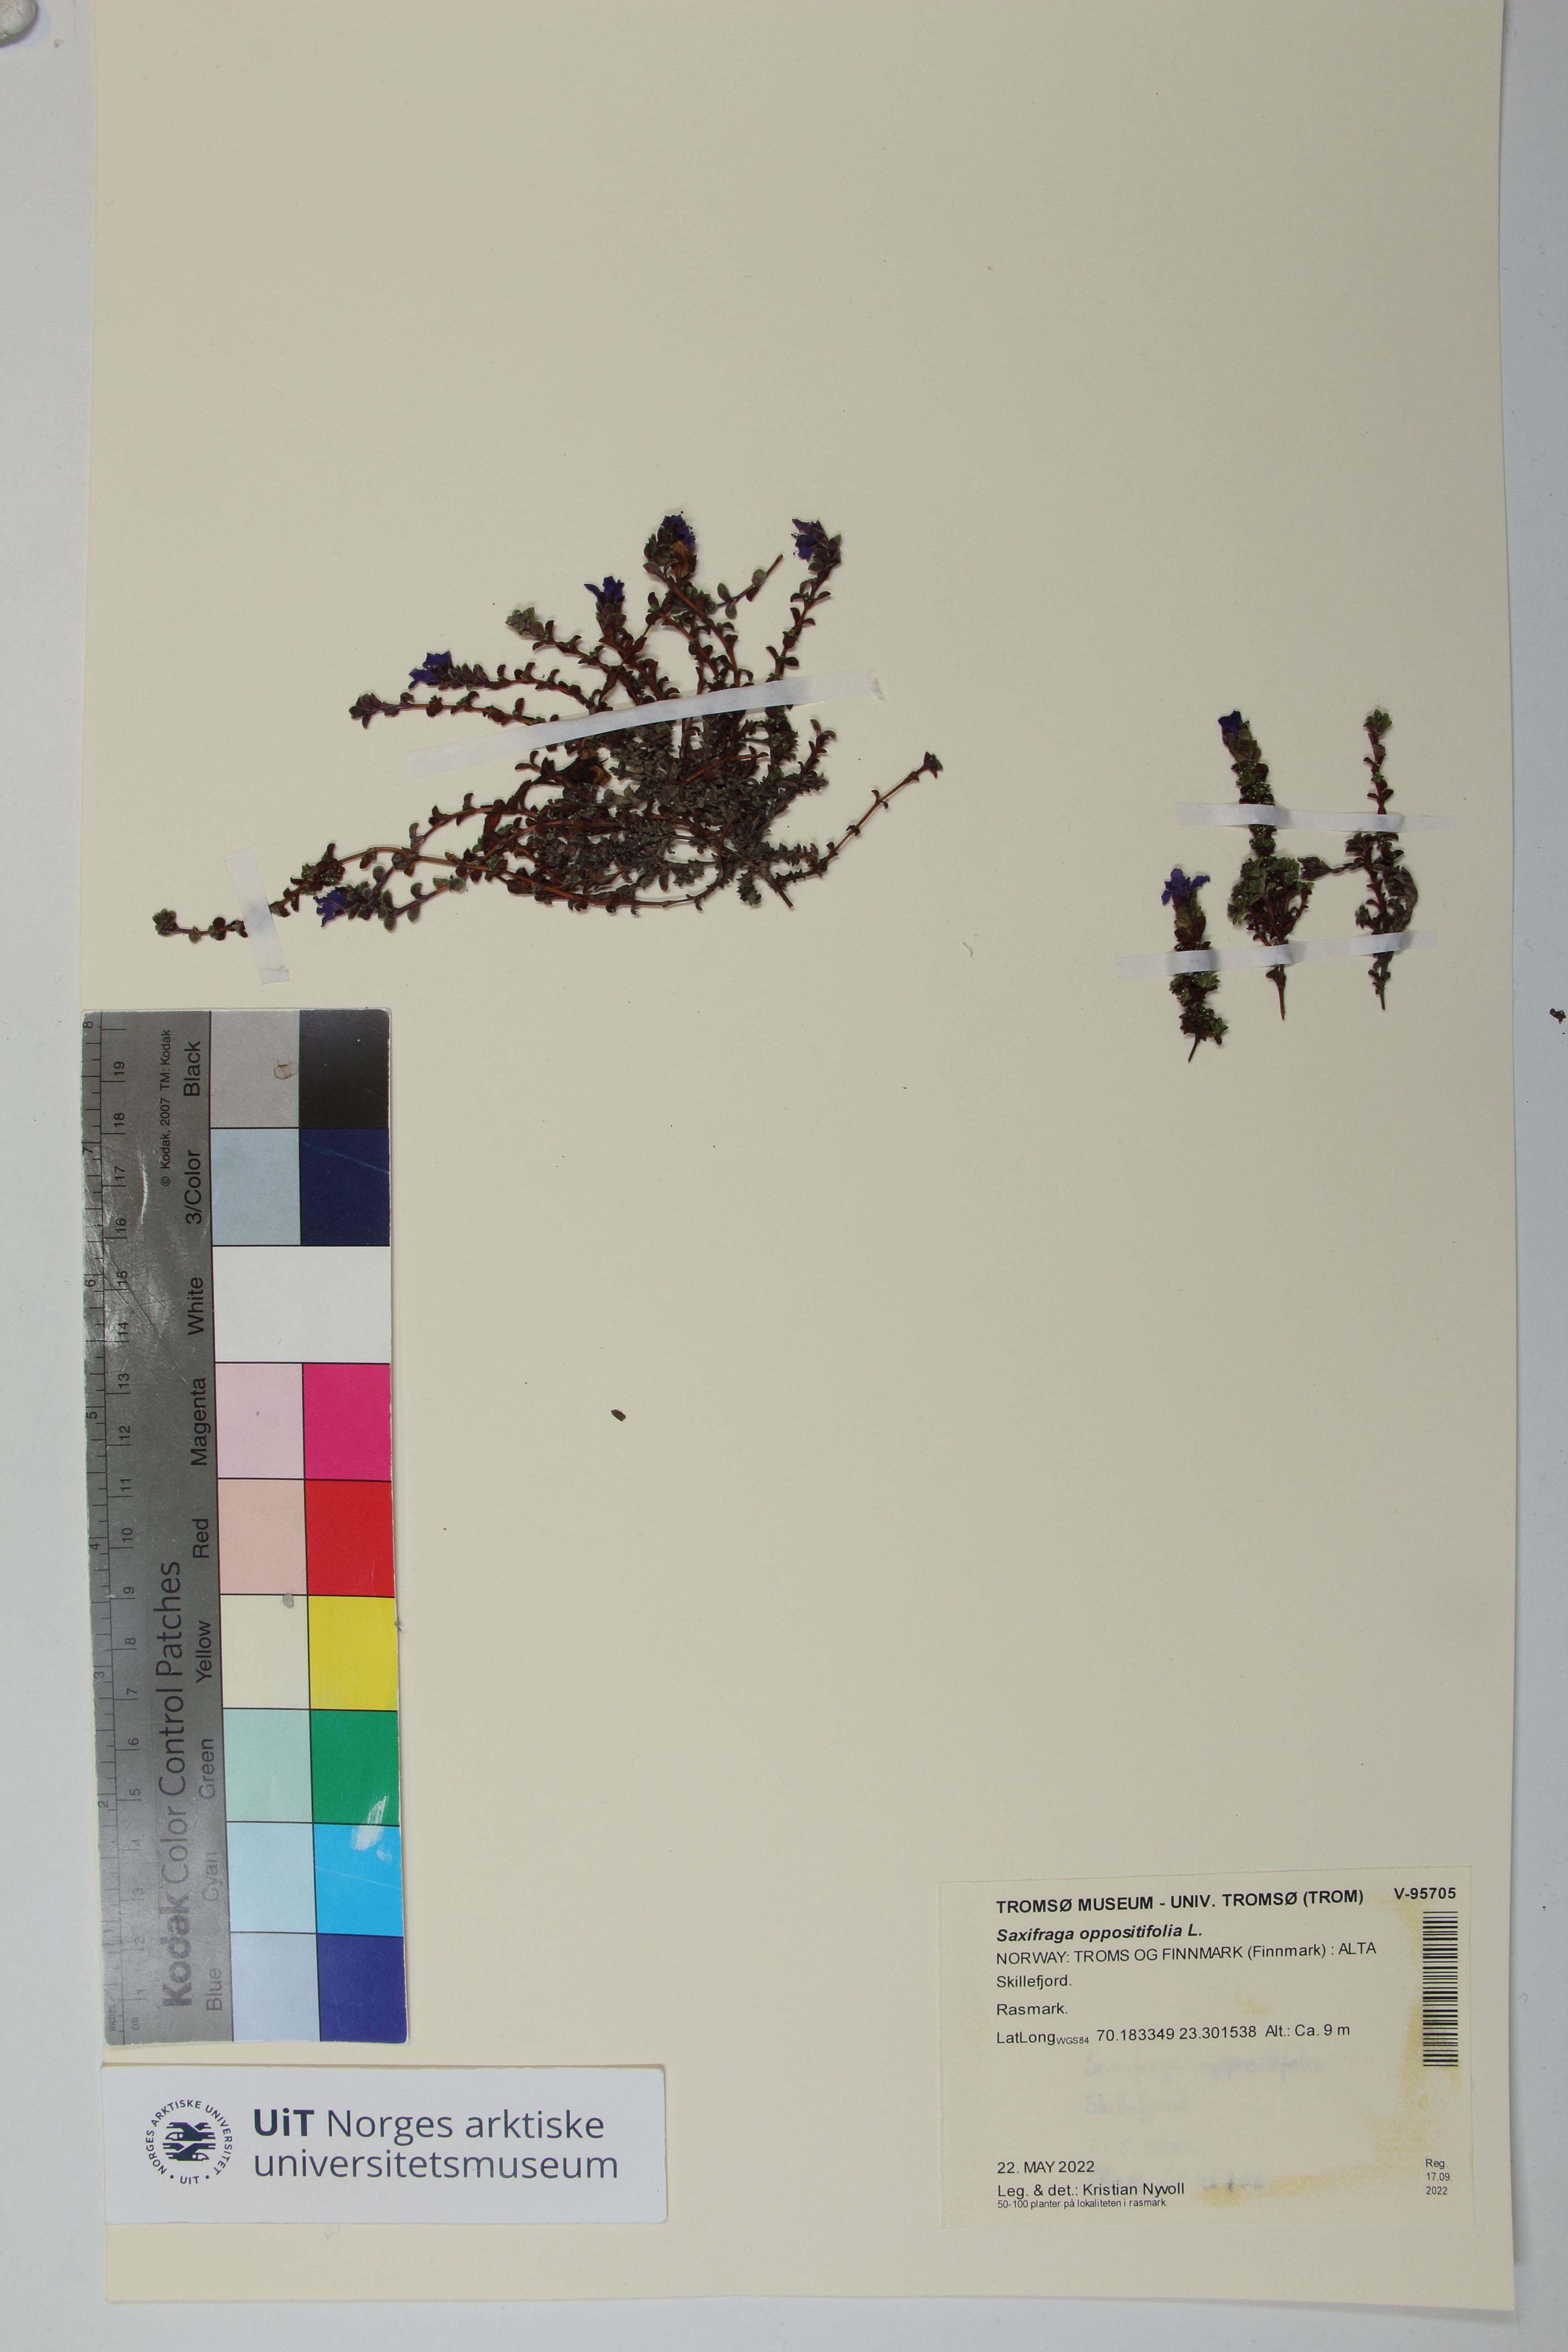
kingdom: Plantae
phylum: Tracheophyta
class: Magnoliopsida
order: Saxifragales
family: Saxifragaceae
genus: Saxifraga
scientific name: Saxifraga oppositifolia
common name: Purple saxifrage
